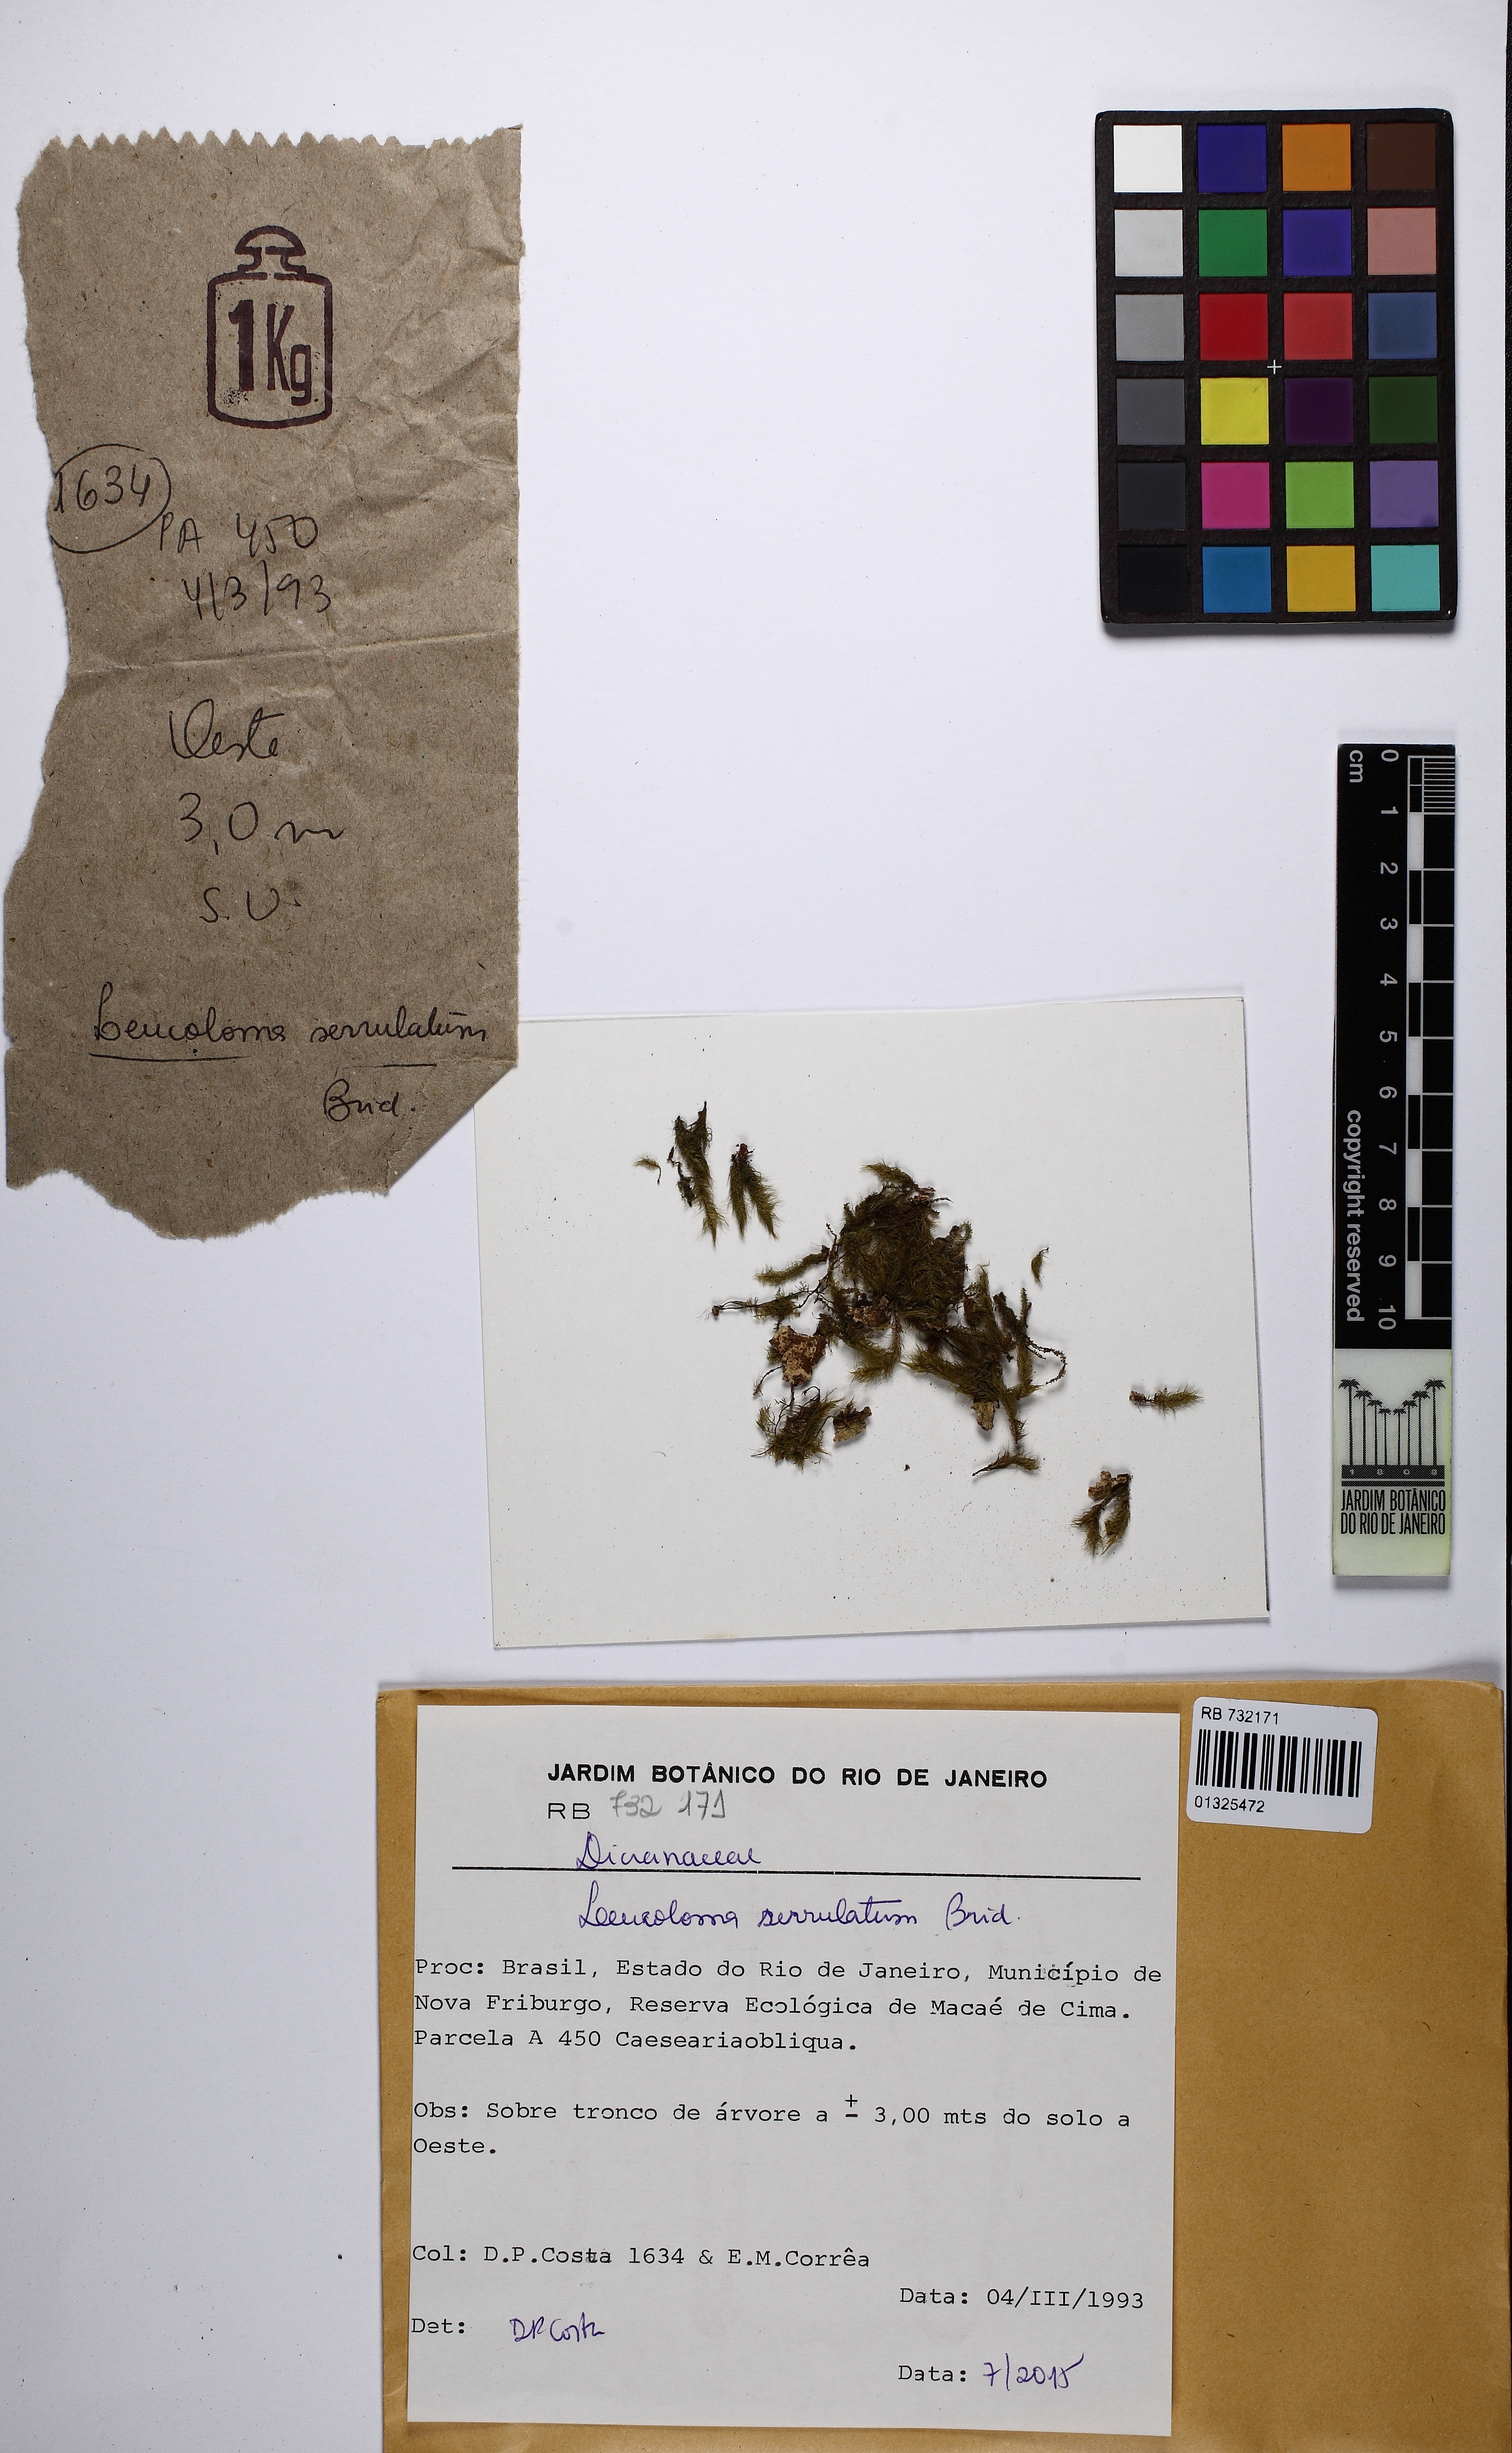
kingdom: Plantae
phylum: Bryophyta
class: Bryopsida
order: Dicranales
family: Dicranaceae
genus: Leucoloma
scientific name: Leucoloma serrulatum
